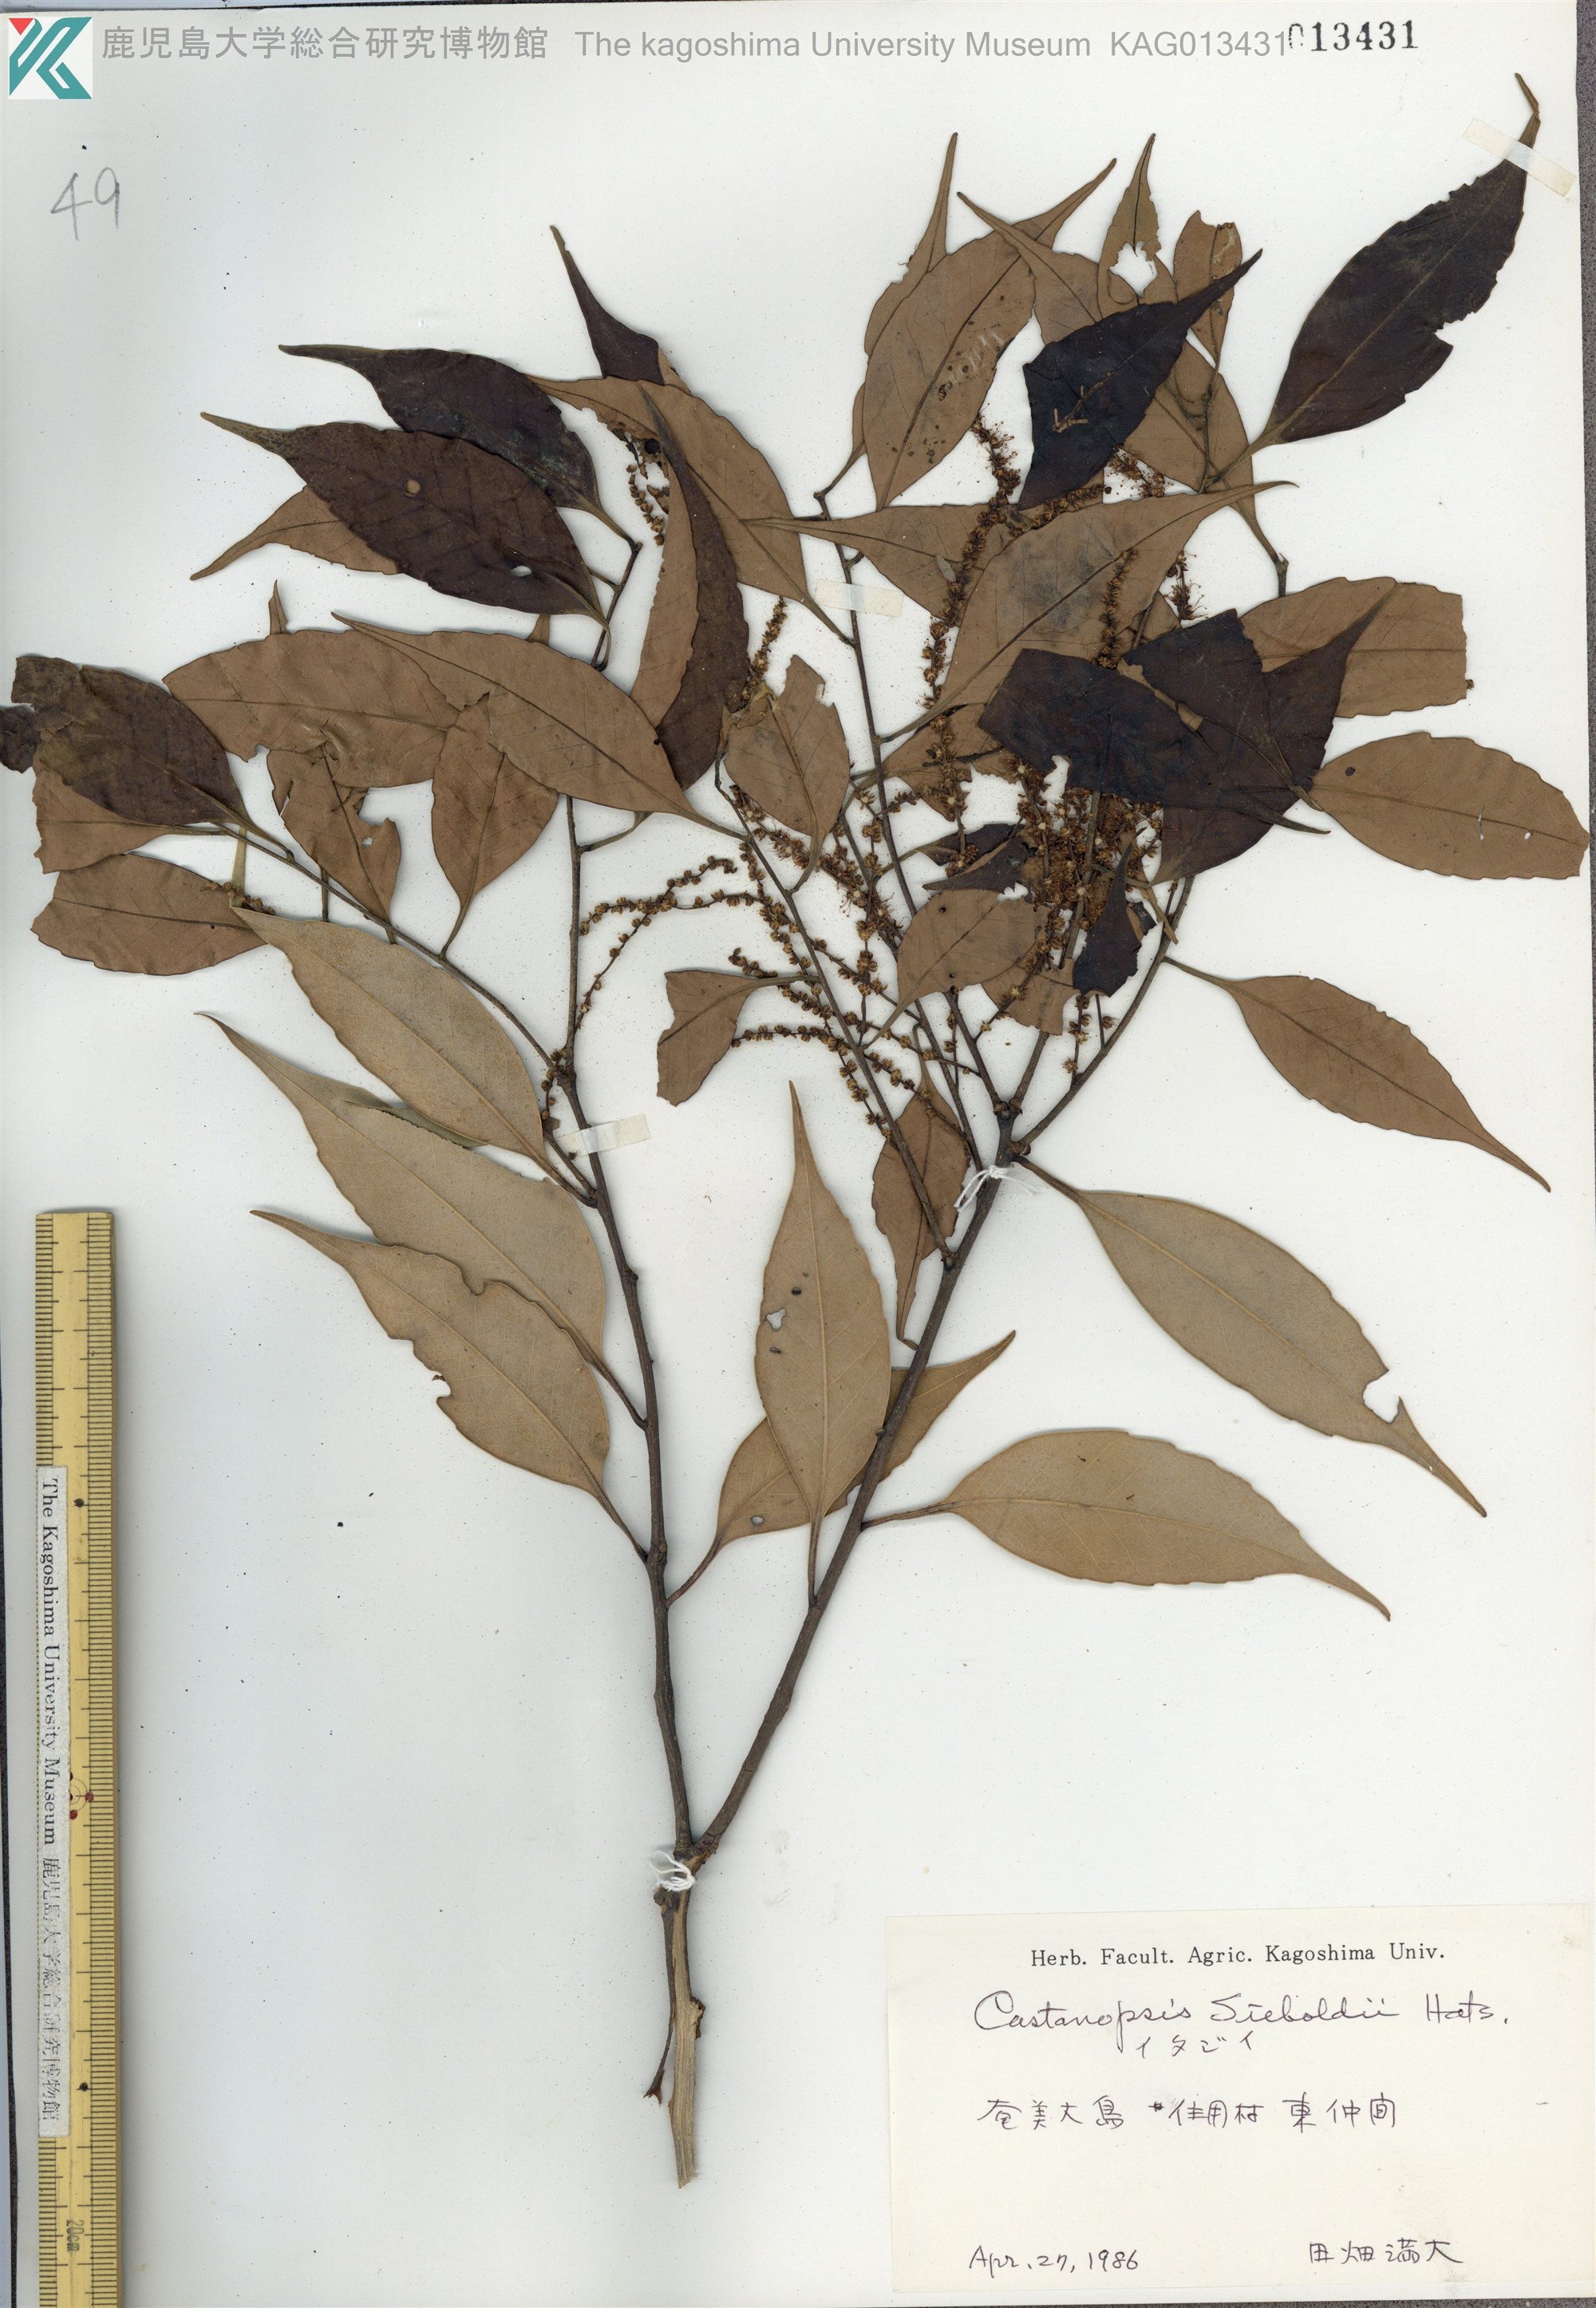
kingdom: Plantae
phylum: Tracheophyta
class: Magnoliopsida
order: Fagales
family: Fagaceae
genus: Castanopsis
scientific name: Castanopsis sieboldii
